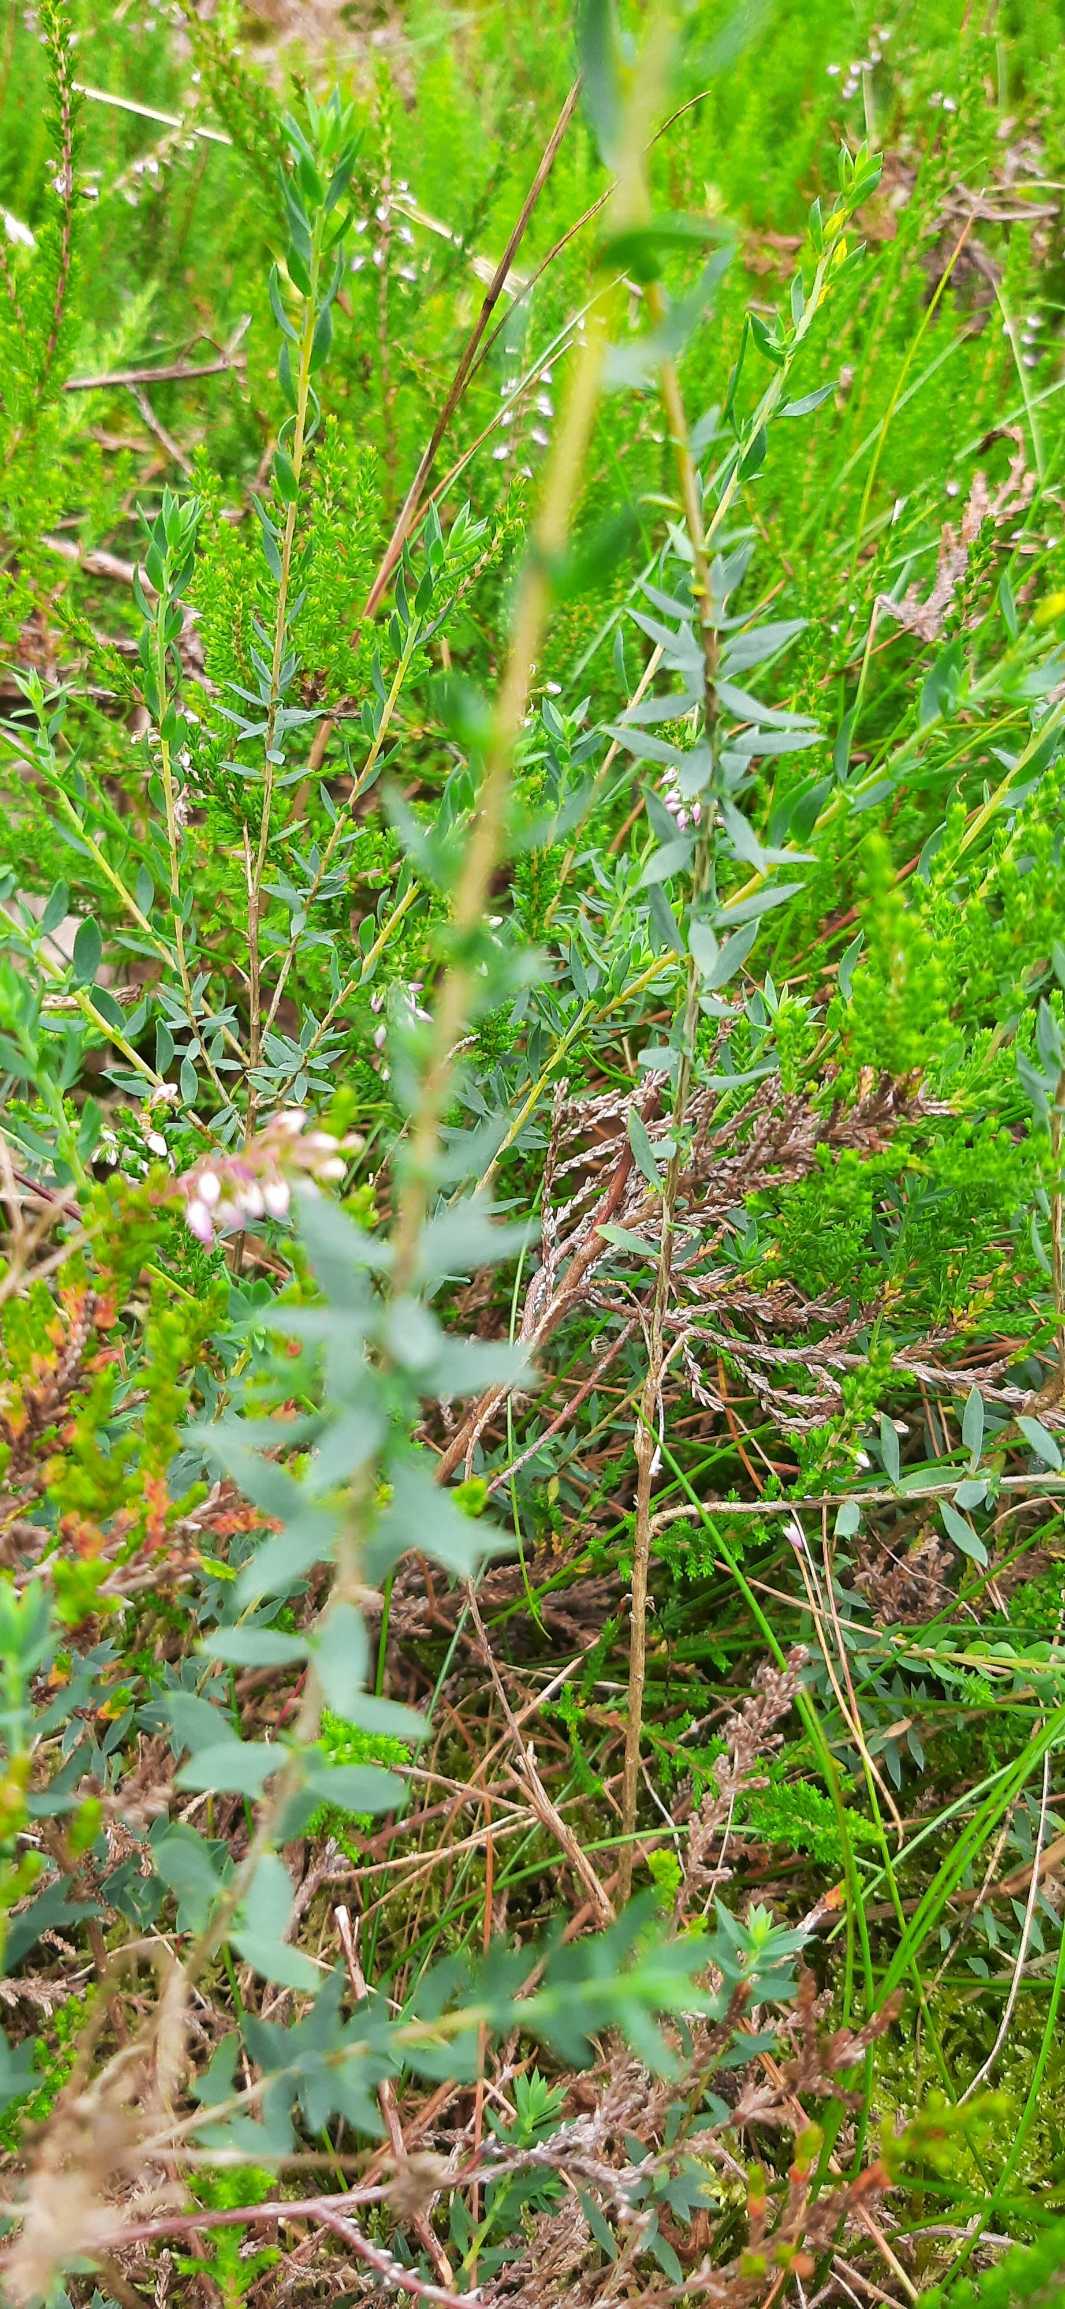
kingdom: Plantae
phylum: Tracheophyta
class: Magnoliopsida
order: Fabales
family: Fabaceae
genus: Genista
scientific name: Genista anglica
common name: Engelsk visse
